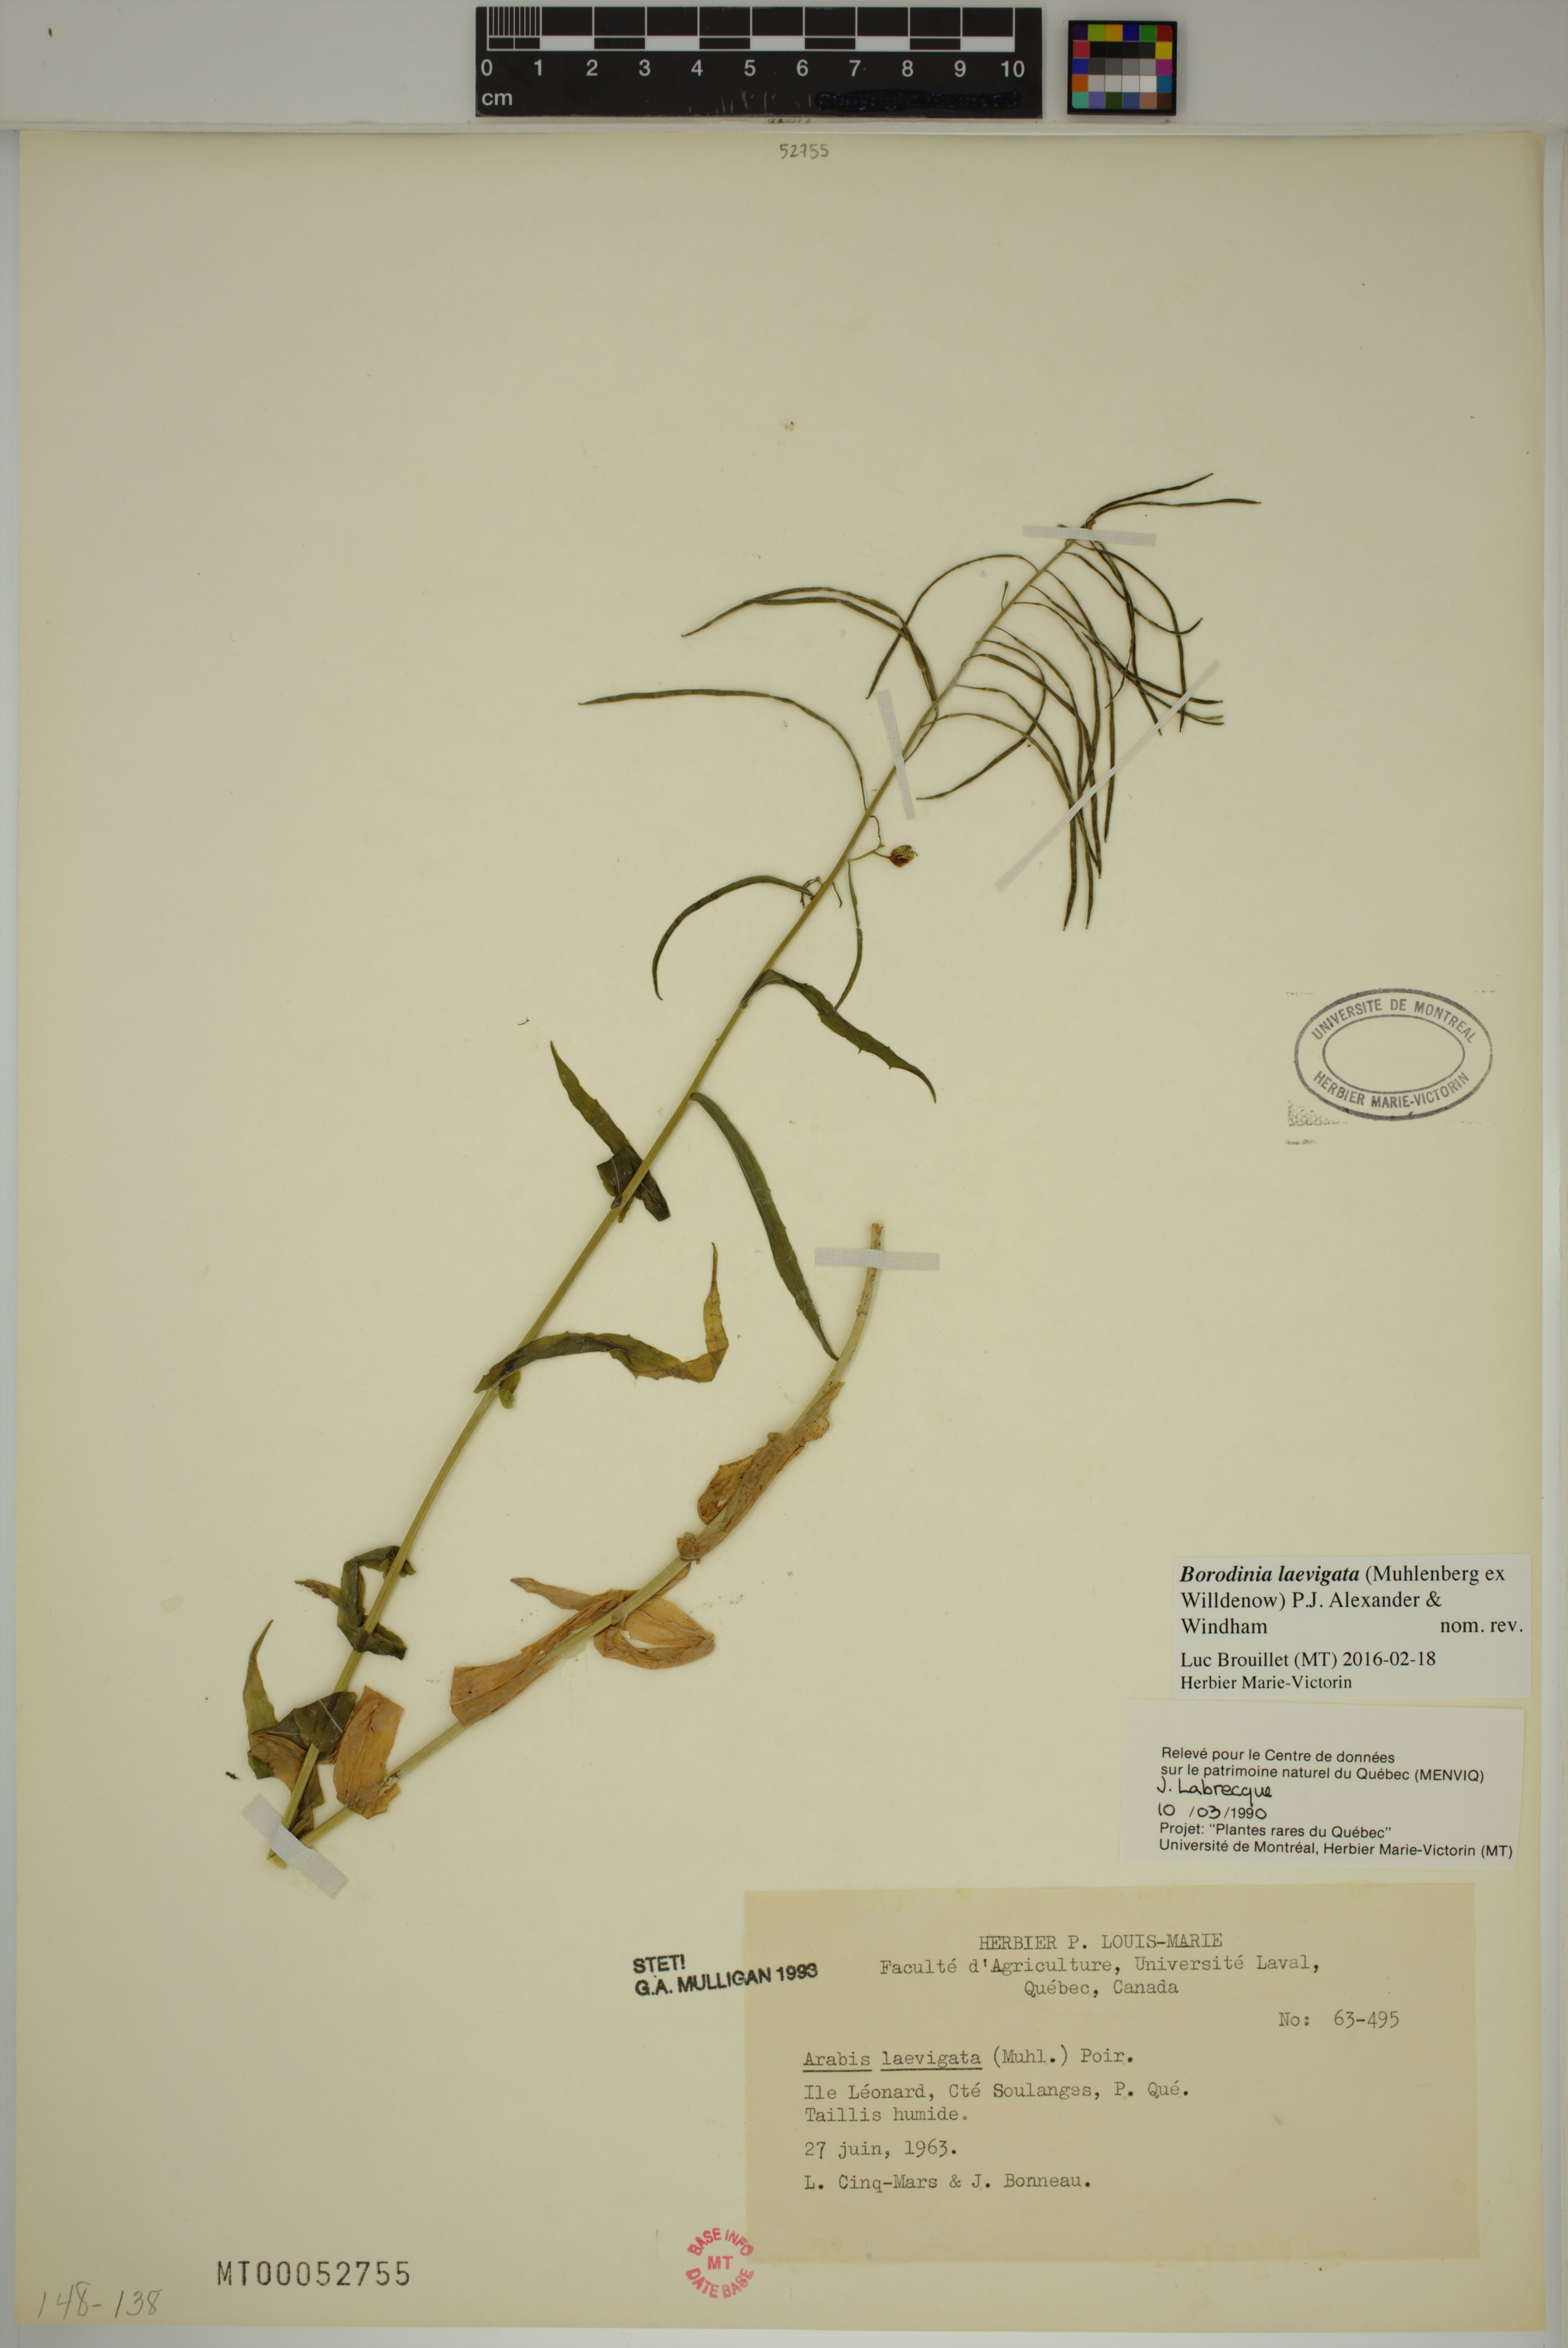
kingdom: Plantae
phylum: Tracheophyta
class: Magnoliopsida
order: Brassicales
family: Brassicaceae
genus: Borodinia
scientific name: Borodinia laevigata
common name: Smooth rockcress
